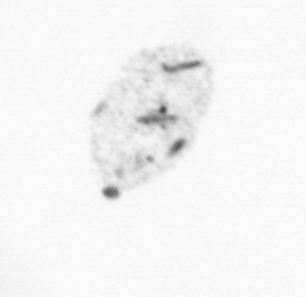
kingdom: Chromista
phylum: Ochrophyta
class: Bacillariophyceae
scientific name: Bacillariophyceae
